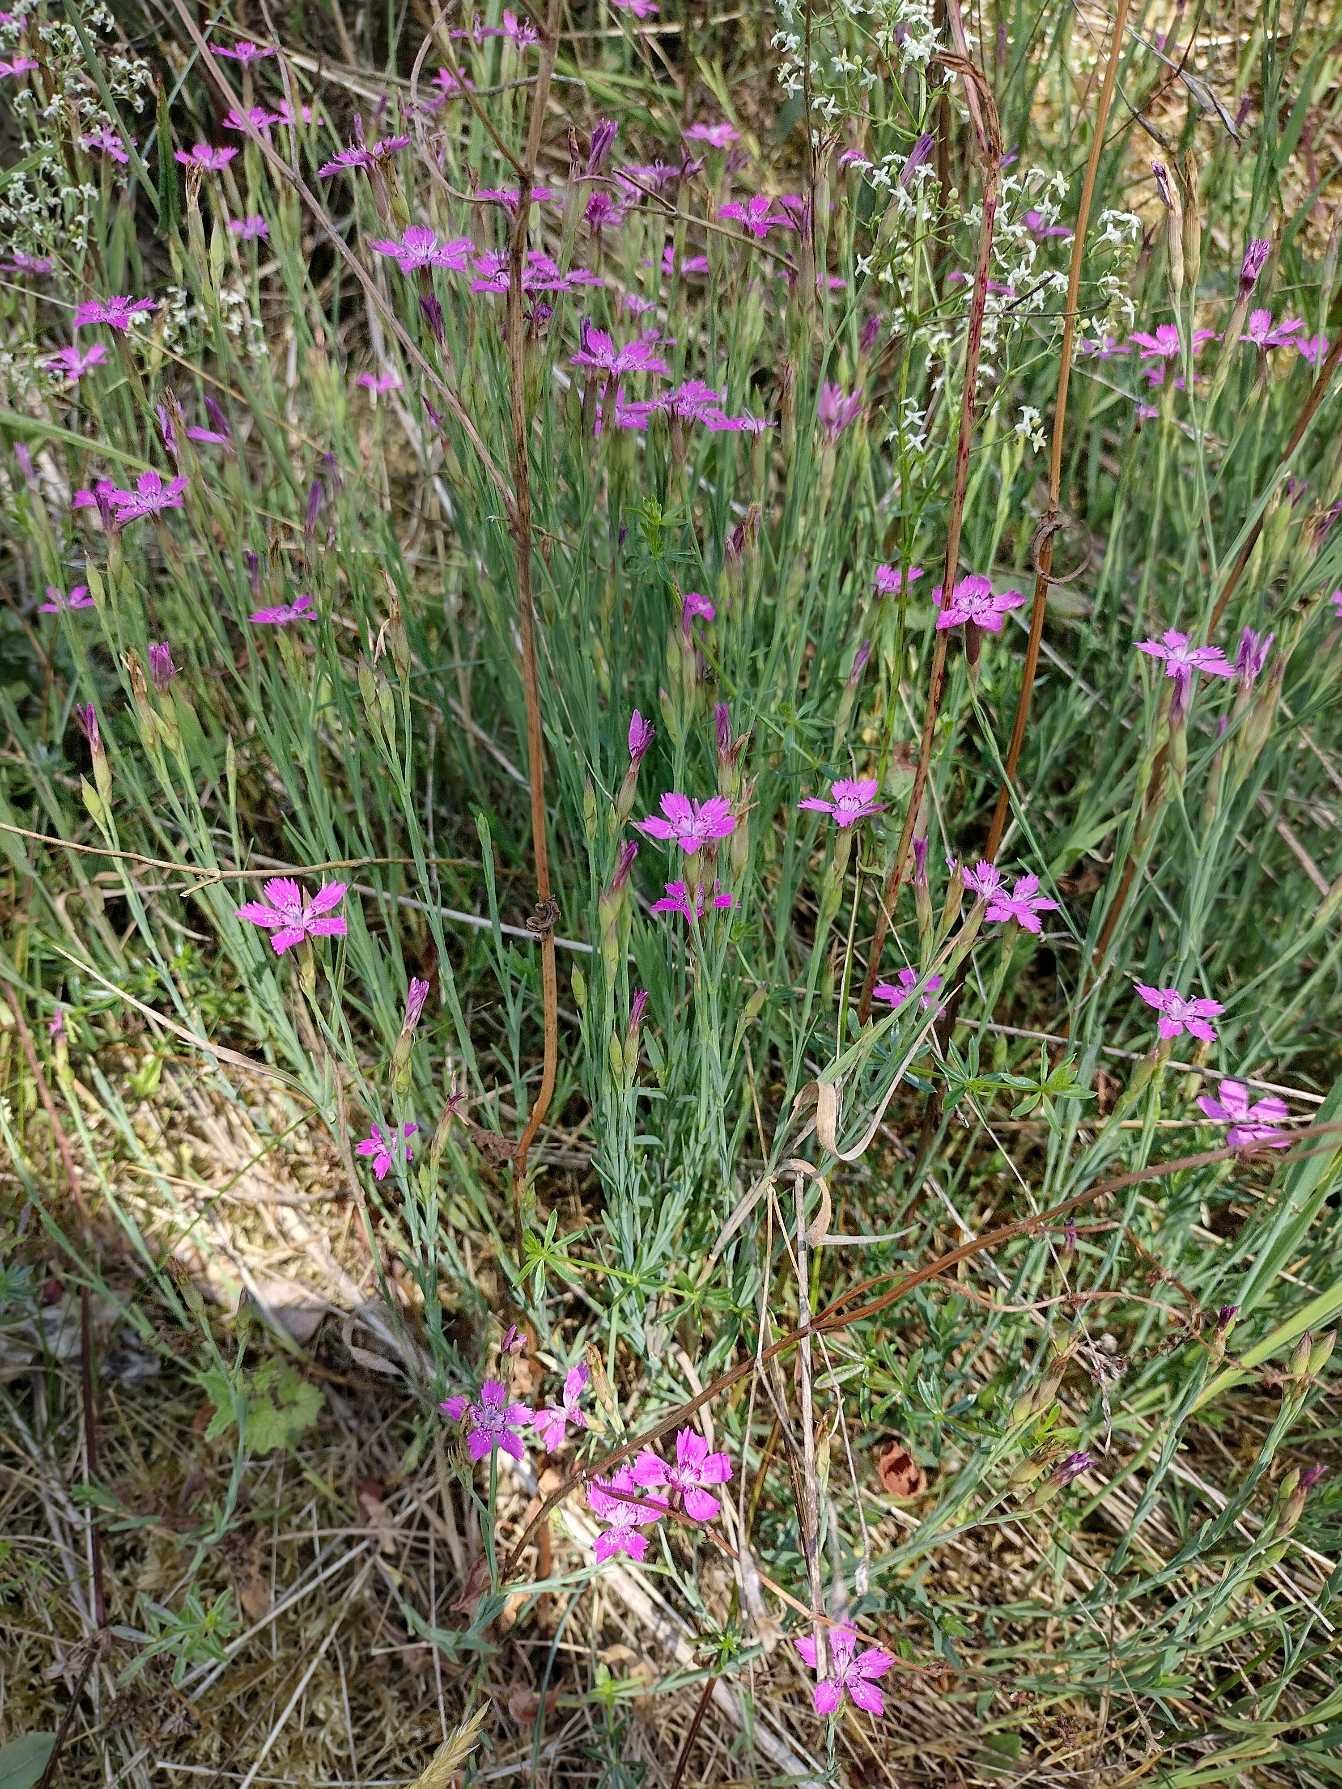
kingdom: Plantae
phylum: Tracheophyta
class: Magnoliopsida
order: Caryophyllales
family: Caryophyllaceae
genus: Dianthus
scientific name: Dianthus deltoides
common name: Bakke-nellike
